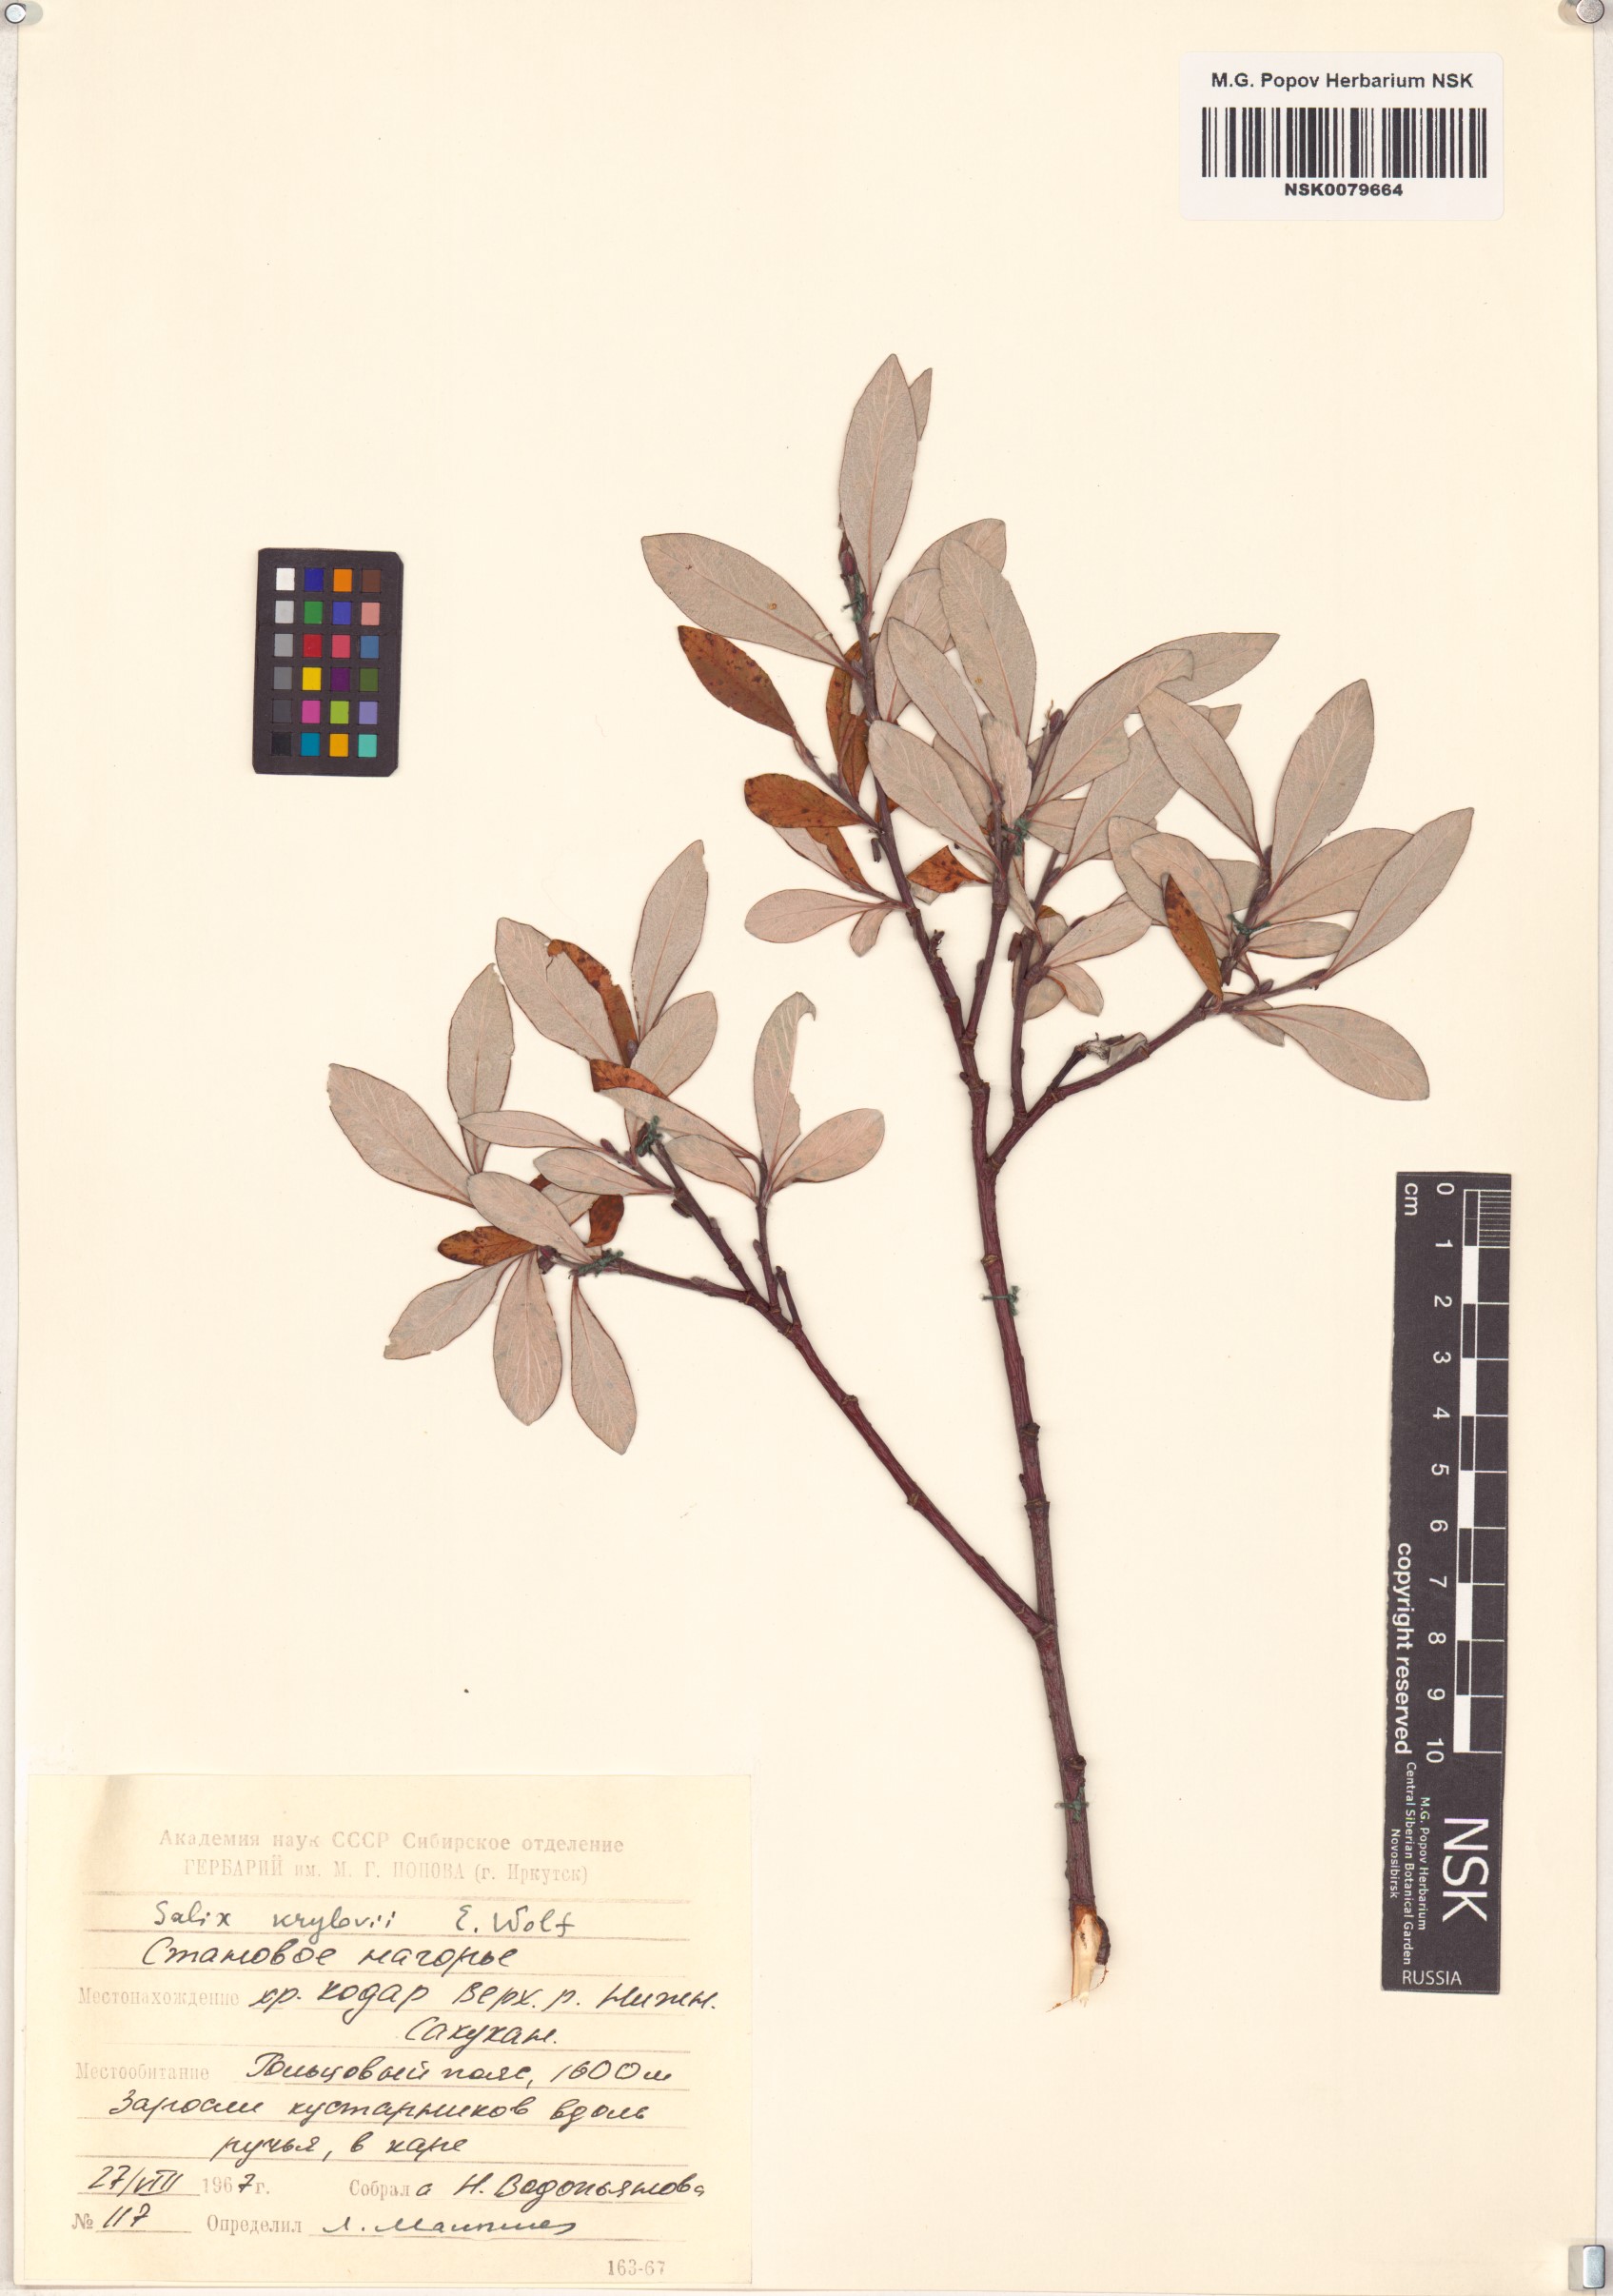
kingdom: Plantae
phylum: Tracheophyta
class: Magnoliopsida
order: Malpighiales
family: Salicaceae
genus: Salix
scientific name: Salix krylovii
